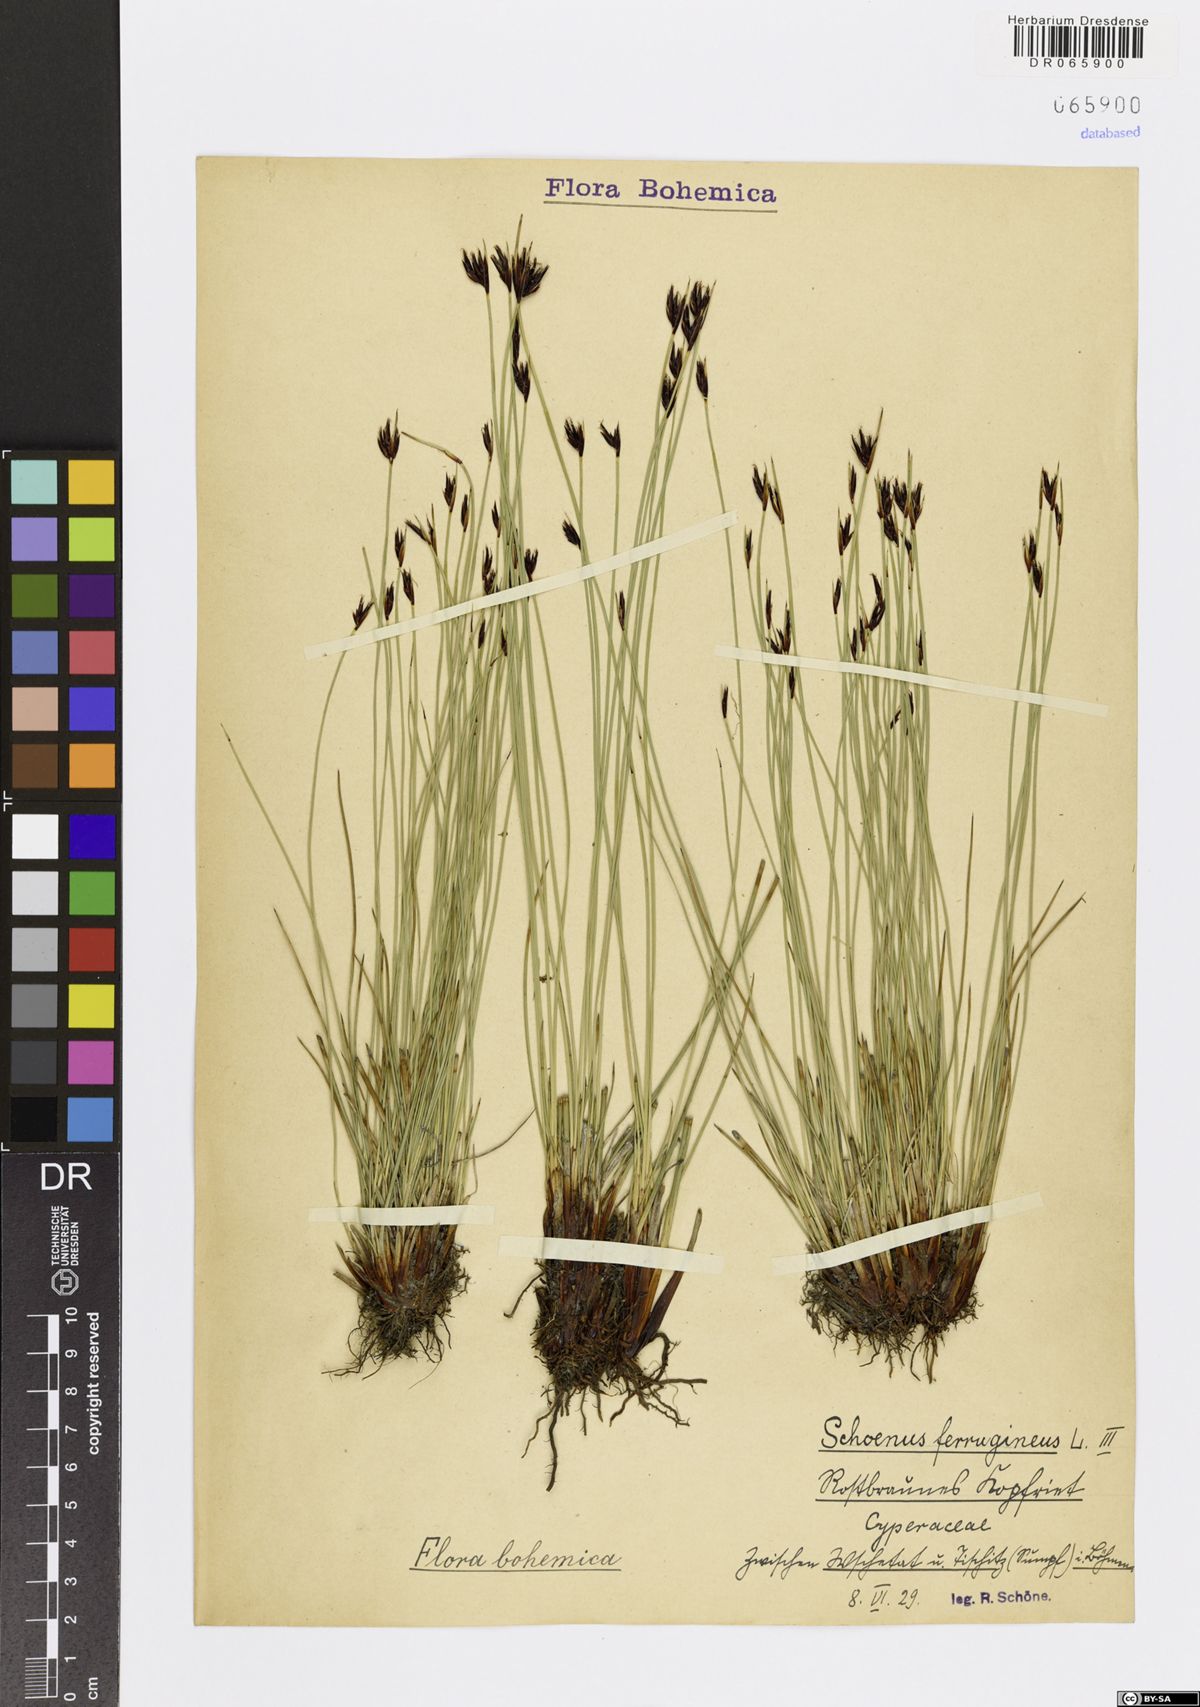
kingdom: Plantae
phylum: Tracheophyta
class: Liliopsida
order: Poales
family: Cyperaceae
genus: Schoenus
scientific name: Schoenus ferrugineus
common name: Brown bog-rush
